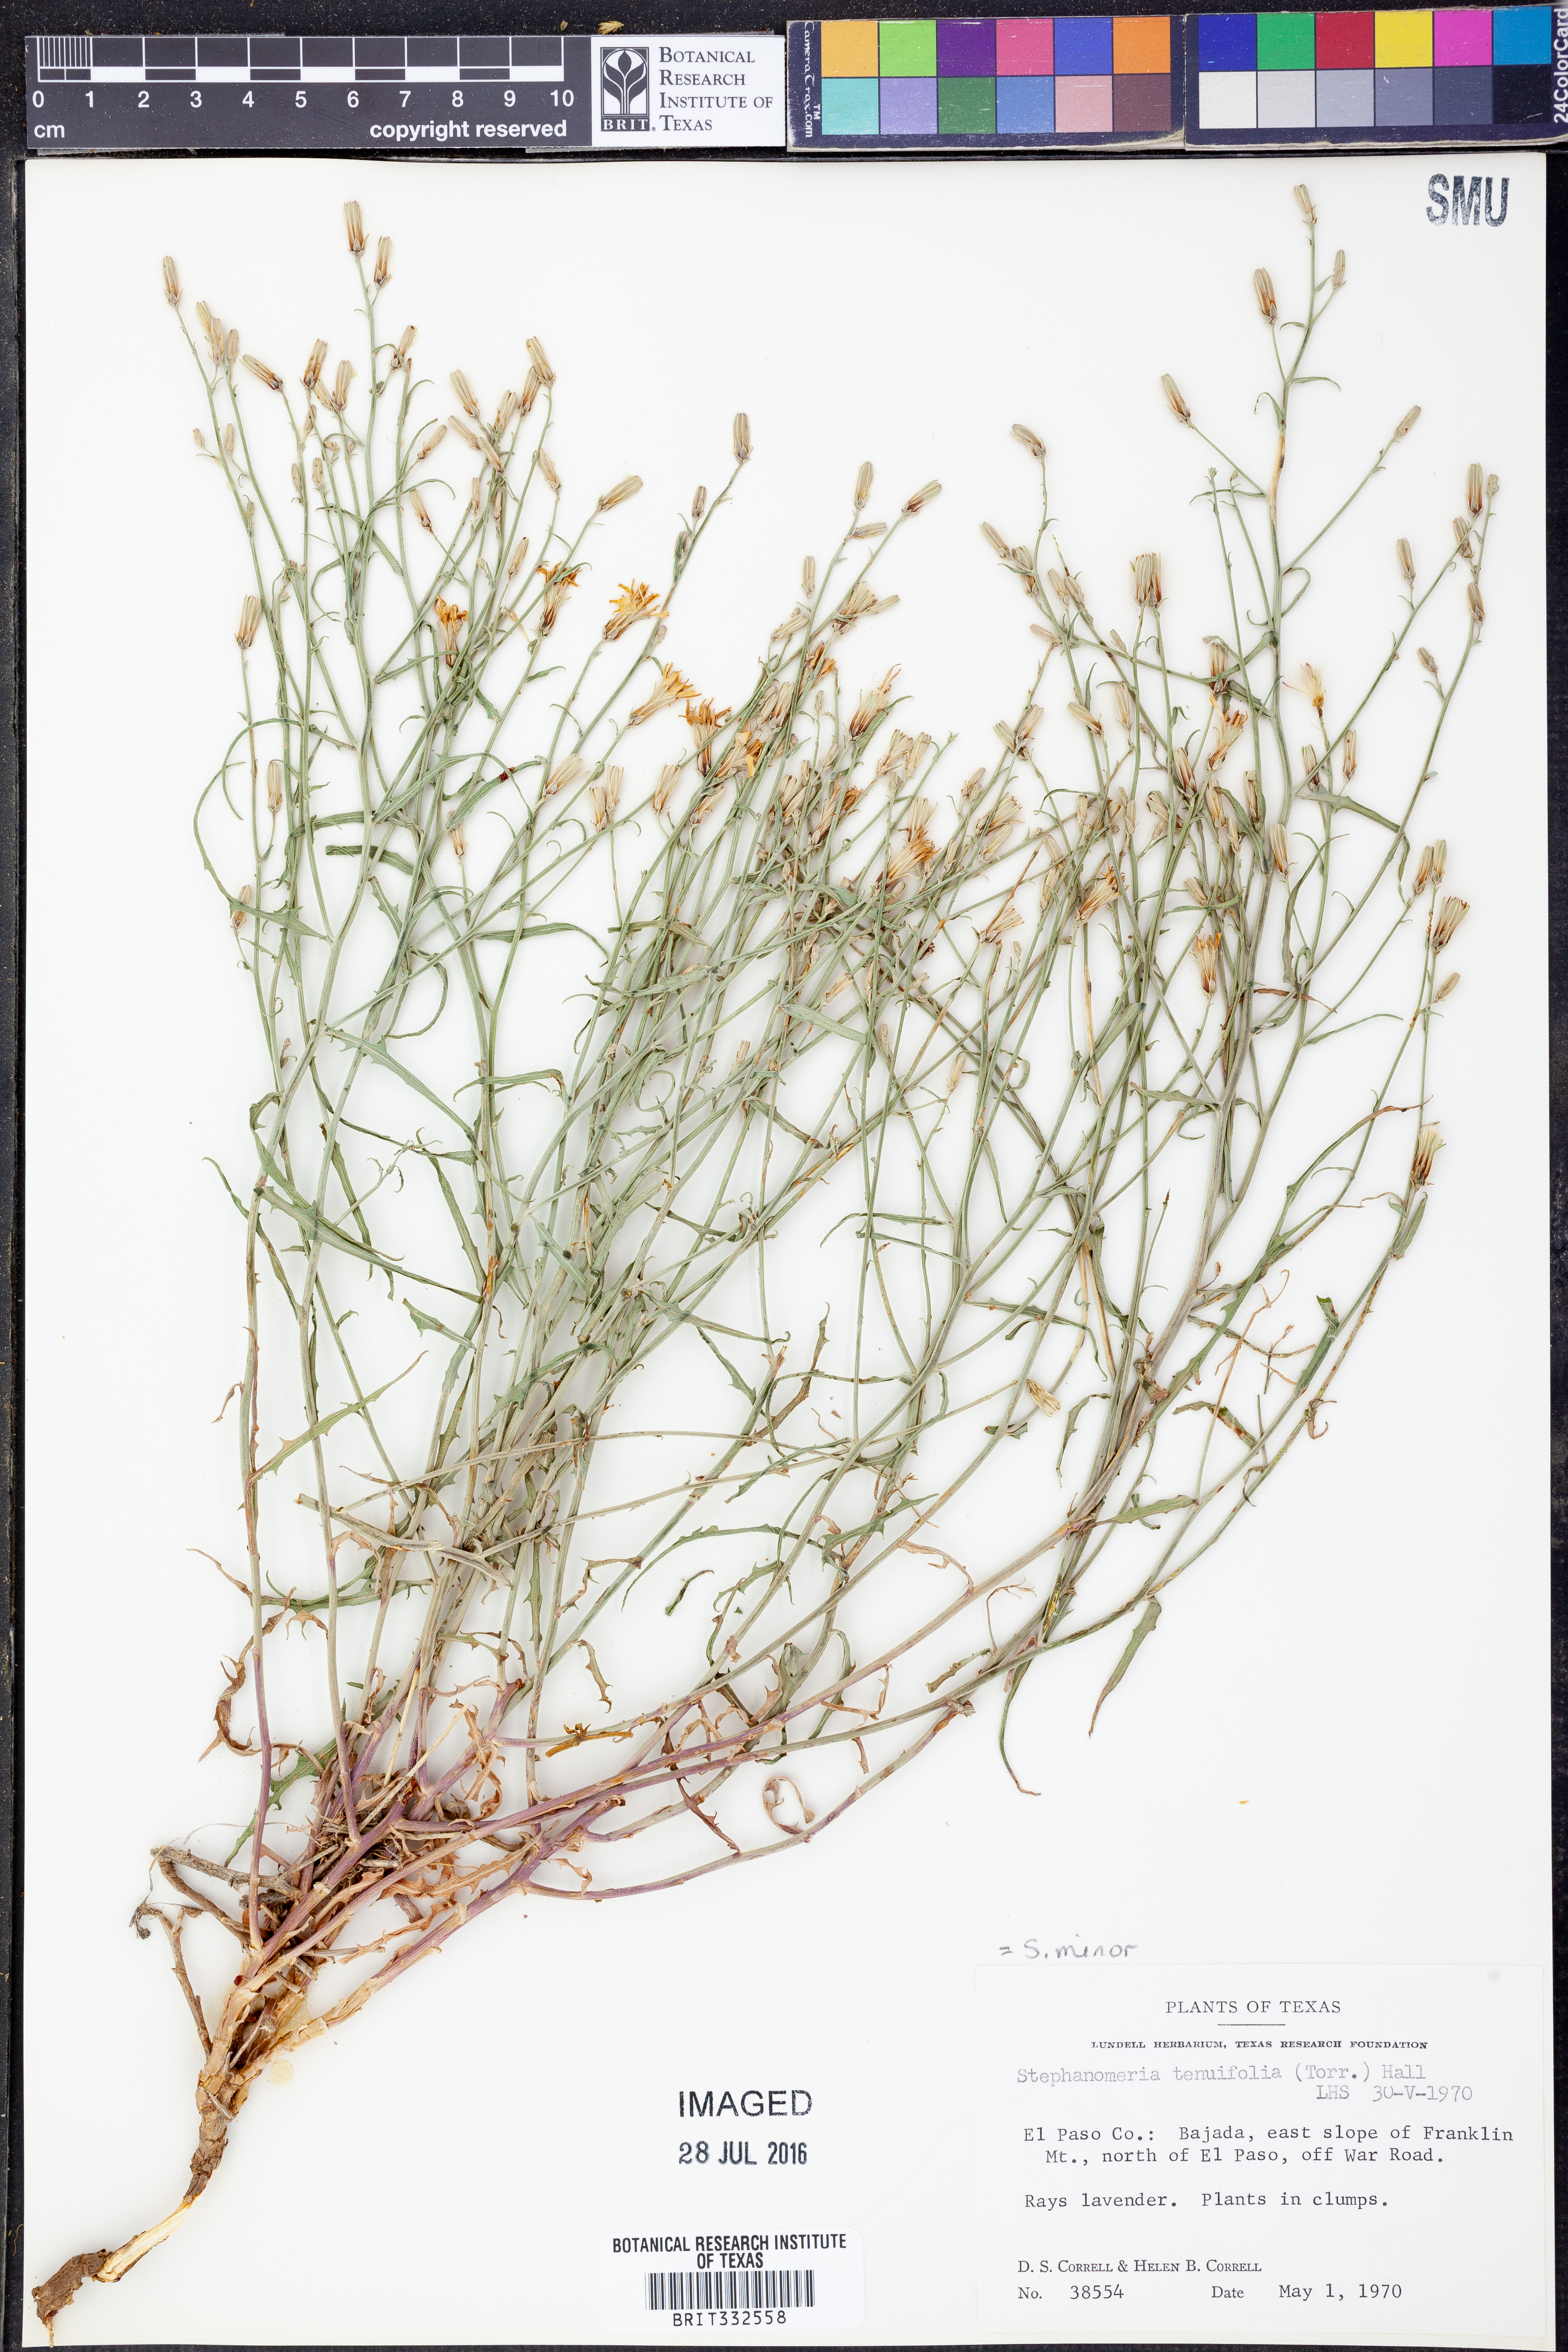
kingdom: Plantae
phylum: Tracheophyta
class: Magnoliopsida
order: Asterales
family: Asteraceae
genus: Stephanomeria
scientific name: Stephanomeria tenuifolia
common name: Slender wirelettuce
